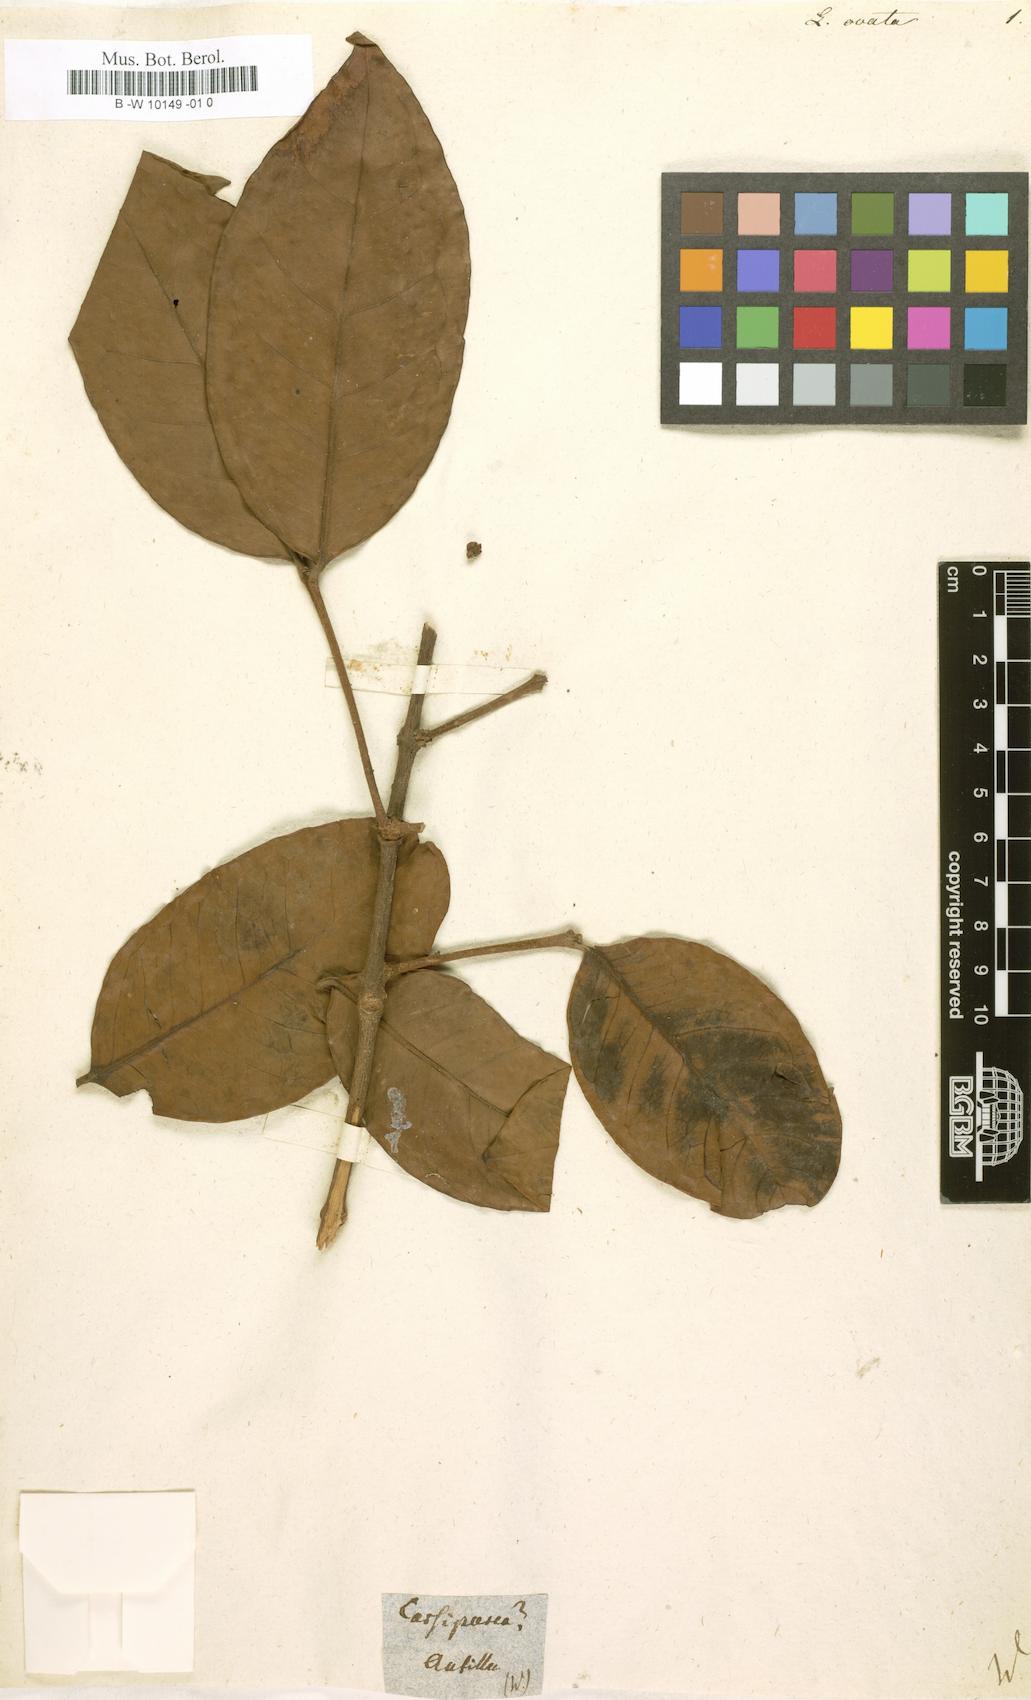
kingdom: Plantae
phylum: Tracheophyta
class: Magnoliopsida
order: Malpighiales
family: Rhizophoraceae
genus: Cassipourea
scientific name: Cassipourea
